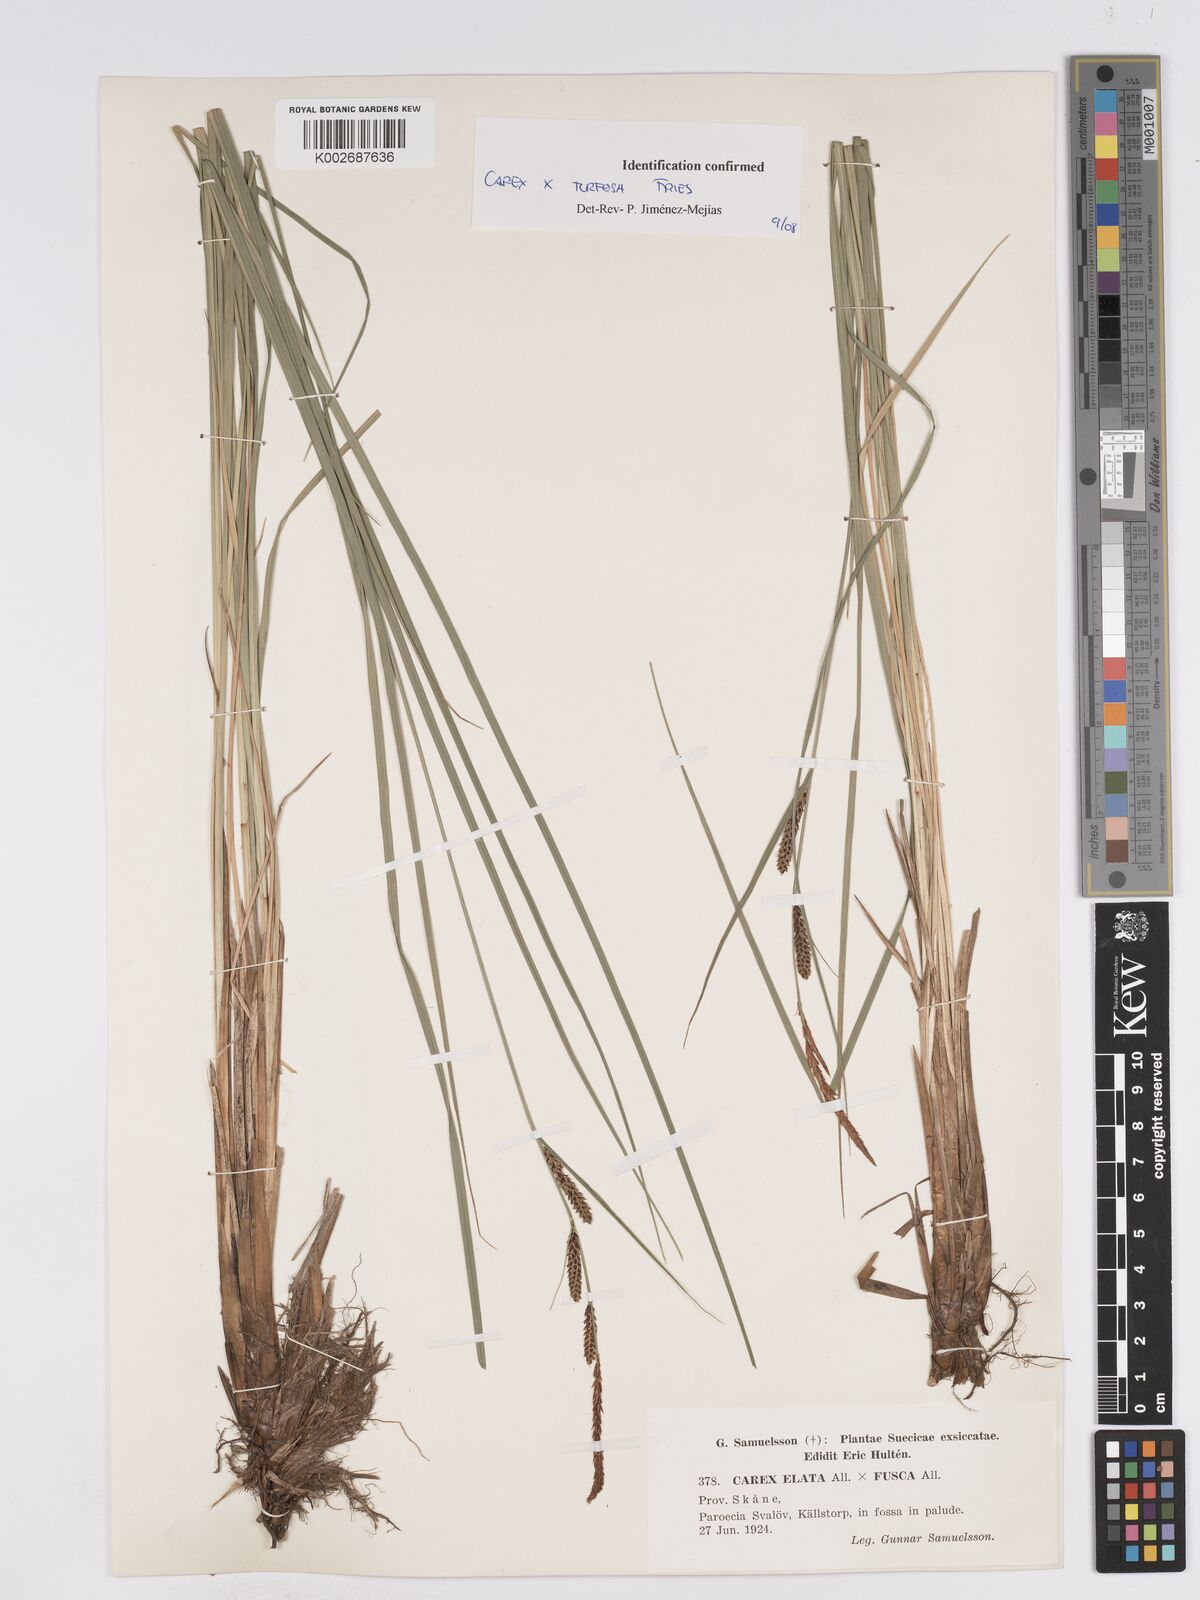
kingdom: Plantae
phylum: Tracheophyta
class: Liliopsida
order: Poales
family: Cyperaceae
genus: Carex
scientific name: Carex nigra
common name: Common sedge
